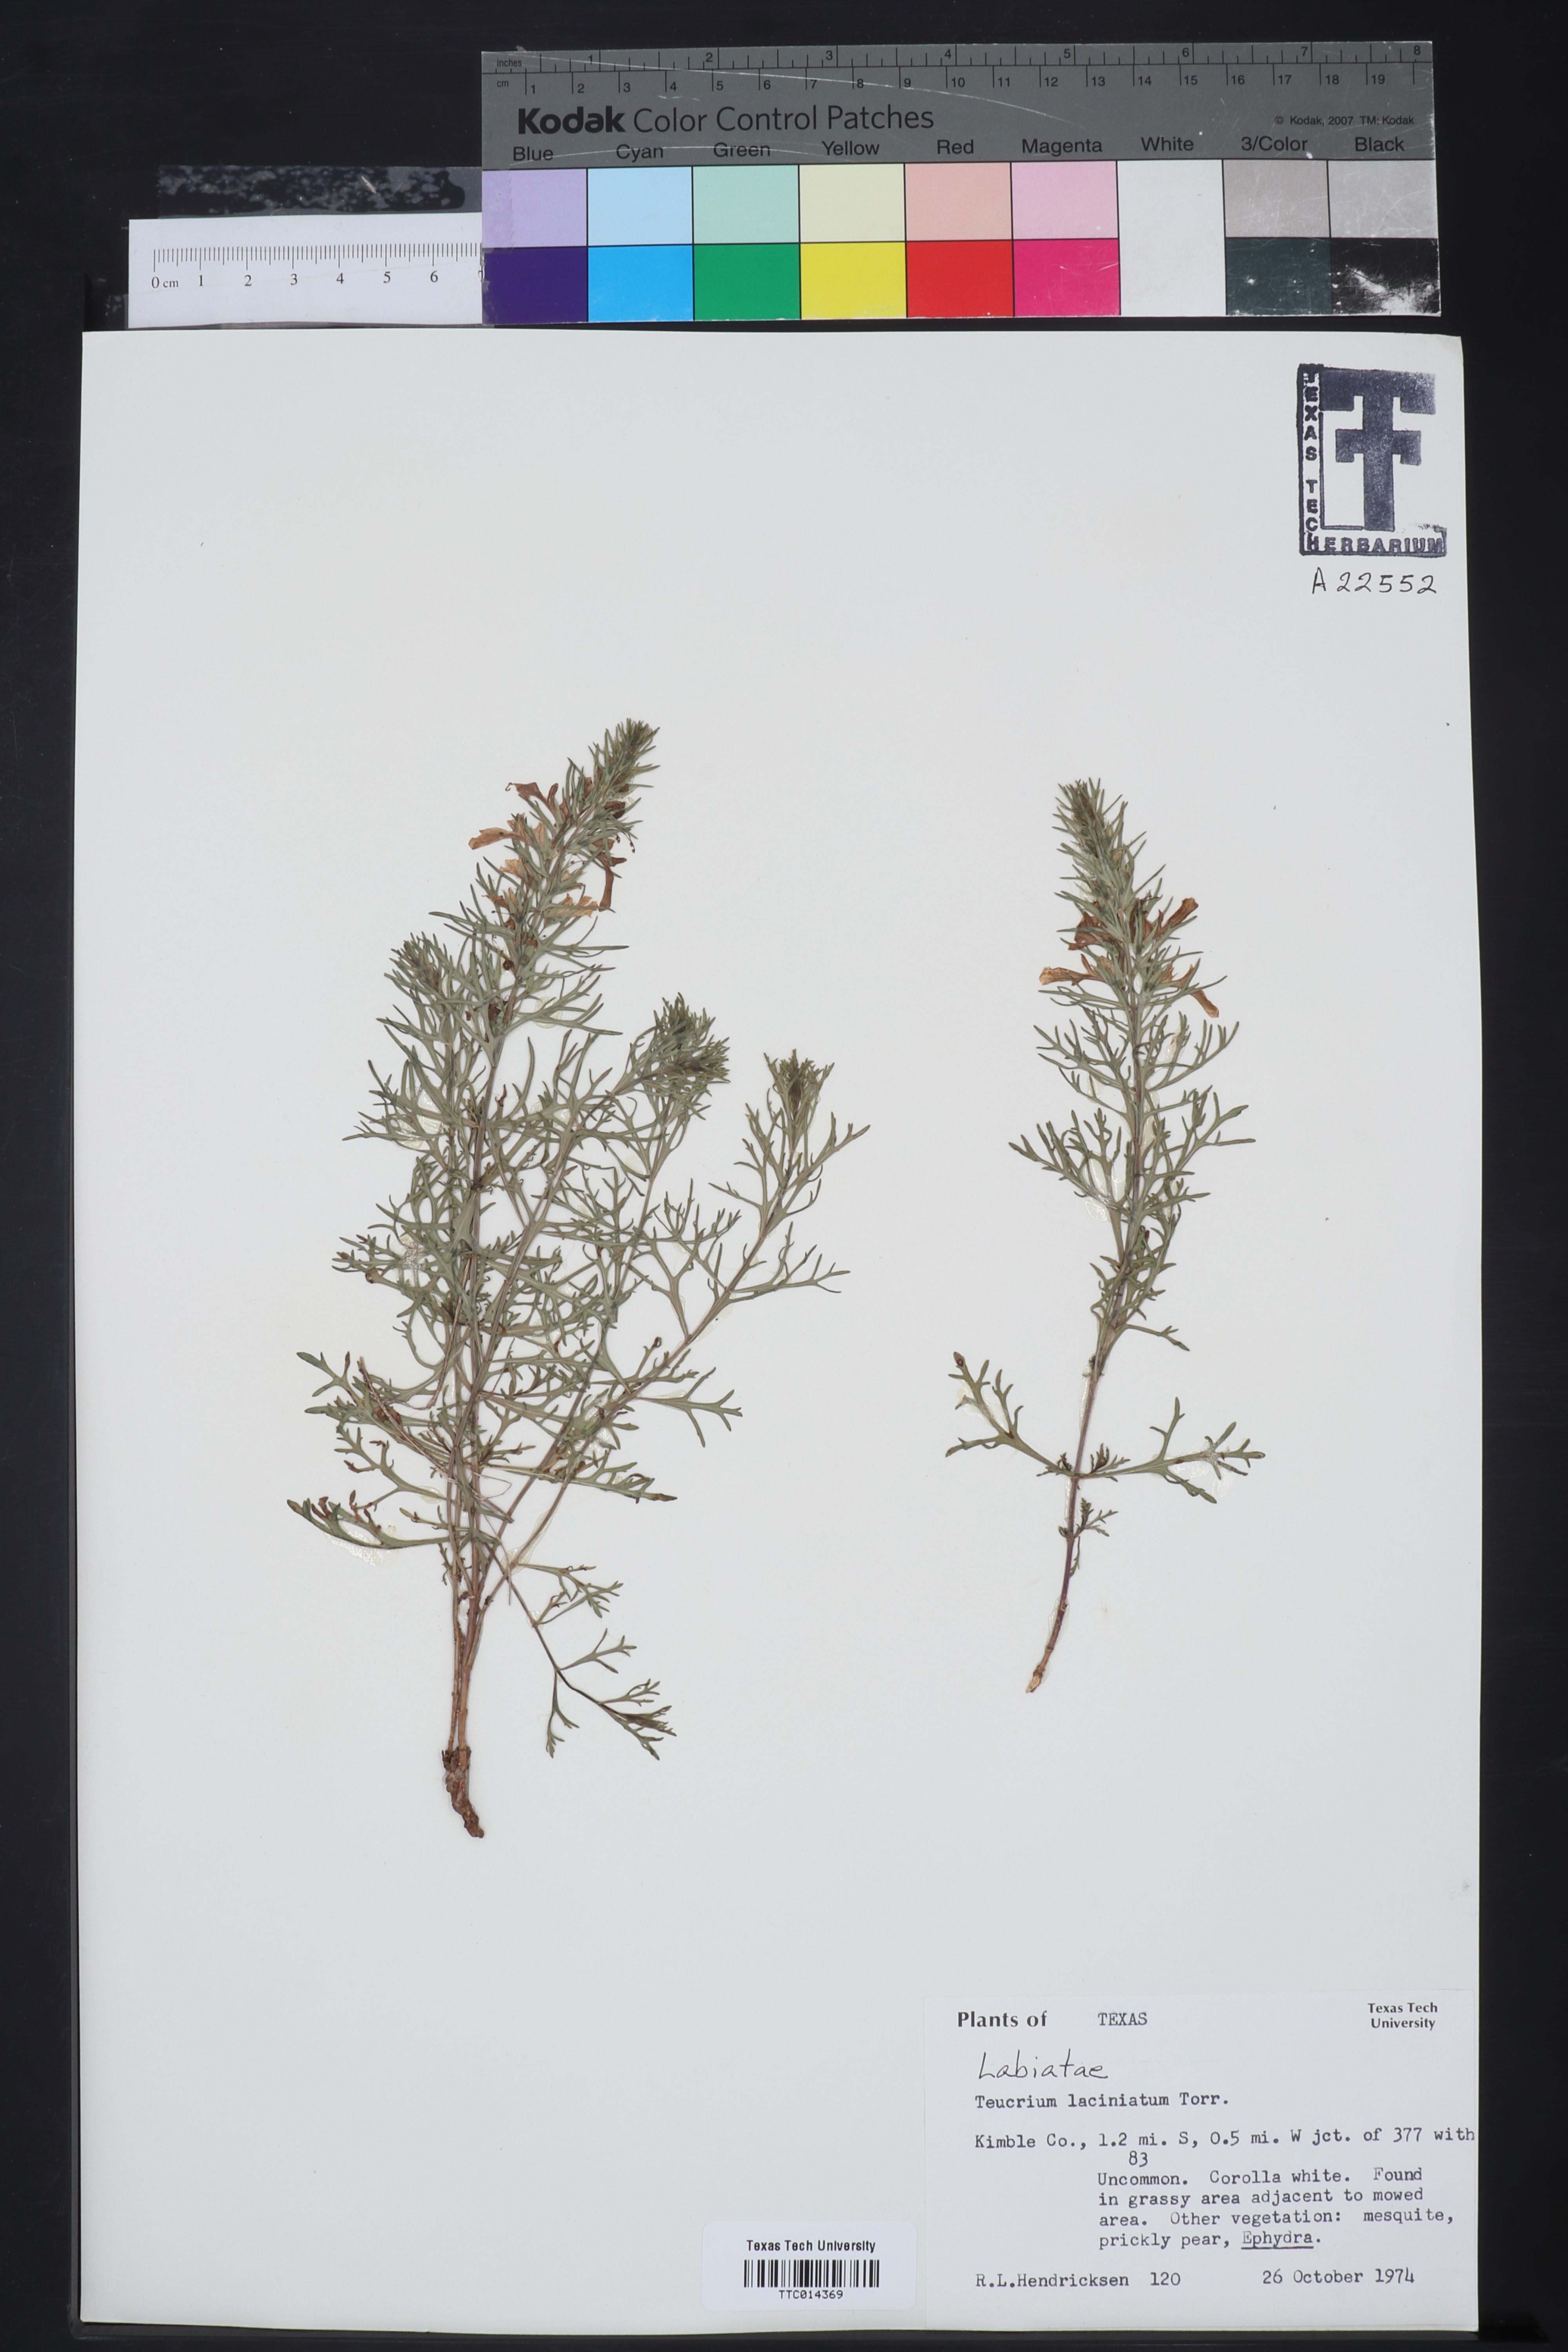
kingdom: Plantae
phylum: Tracheophyta
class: Magnoliopsida
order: Lamiales
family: Lamiaceae
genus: Teucrium
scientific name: Teucrium laciniatum
